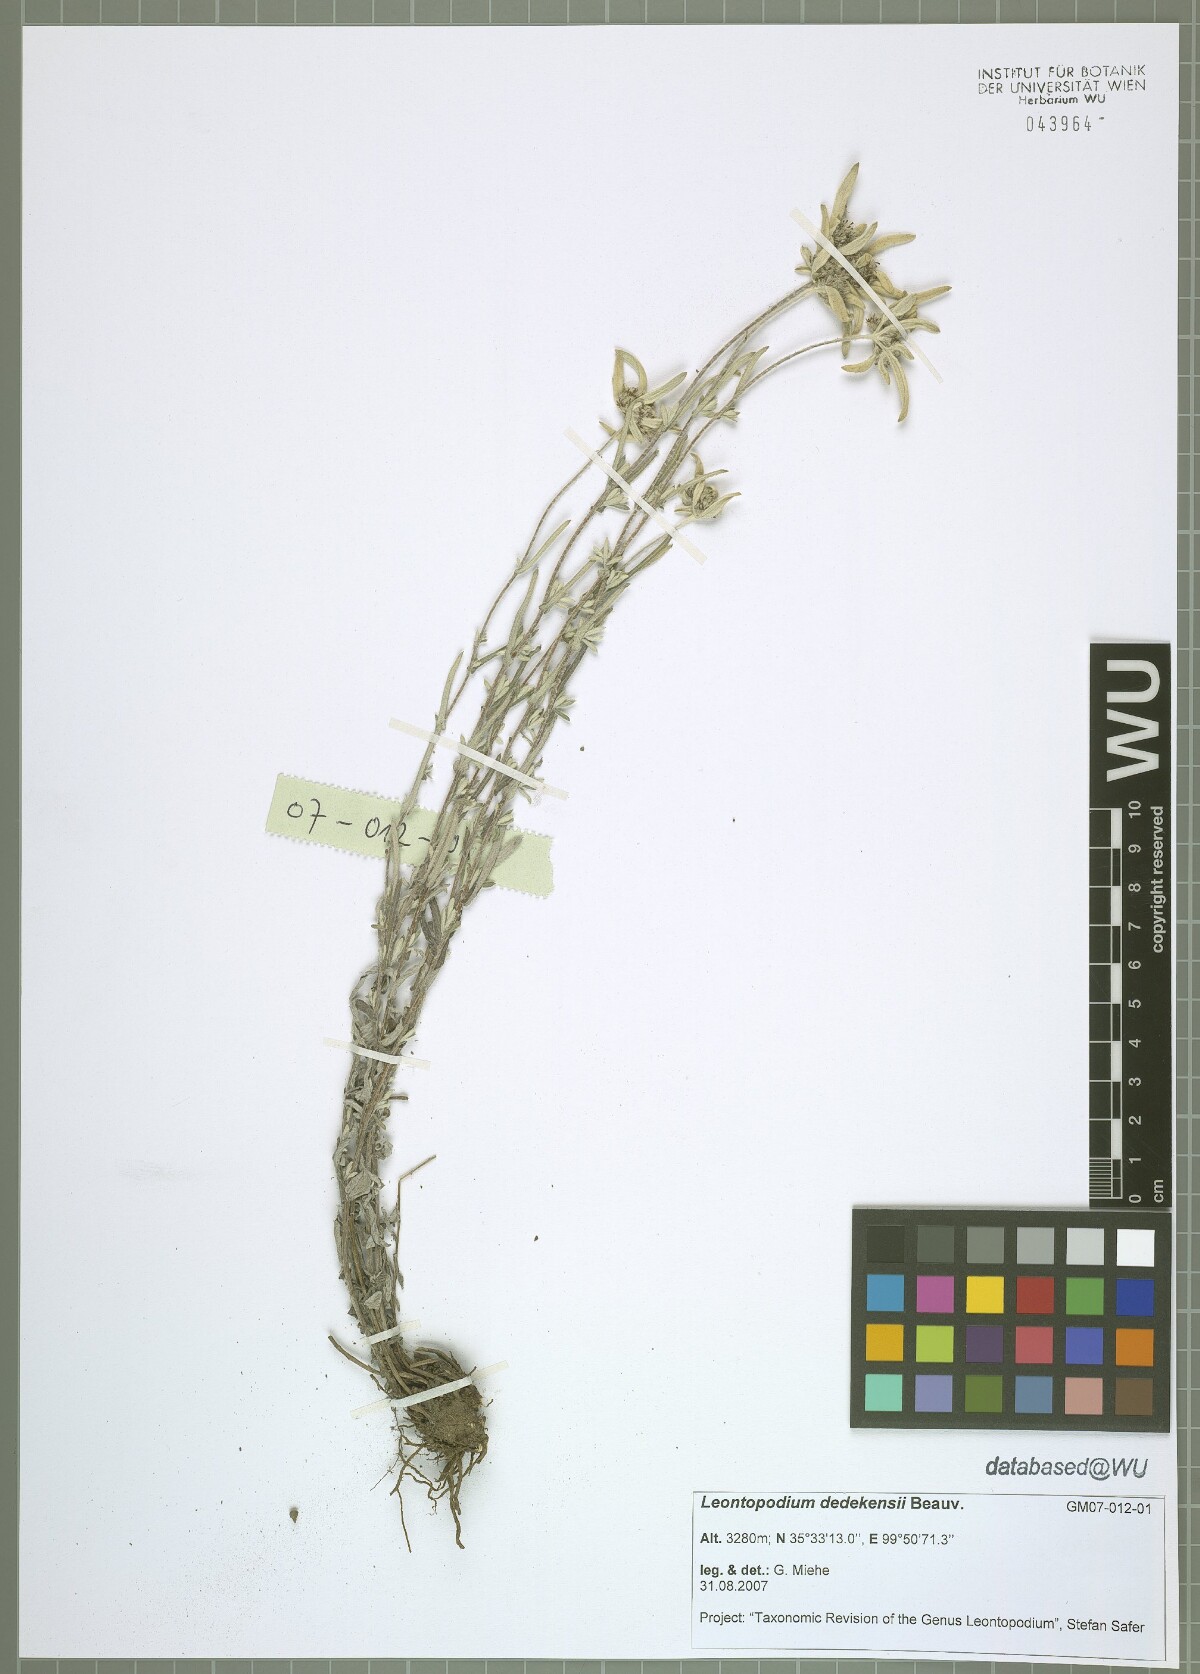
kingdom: Plantae
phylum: Tracheophyta
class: Magnoliopsida
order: Asterales
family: Asteraceae
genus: Leontopodium
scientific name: Leontopodium dedekensii
